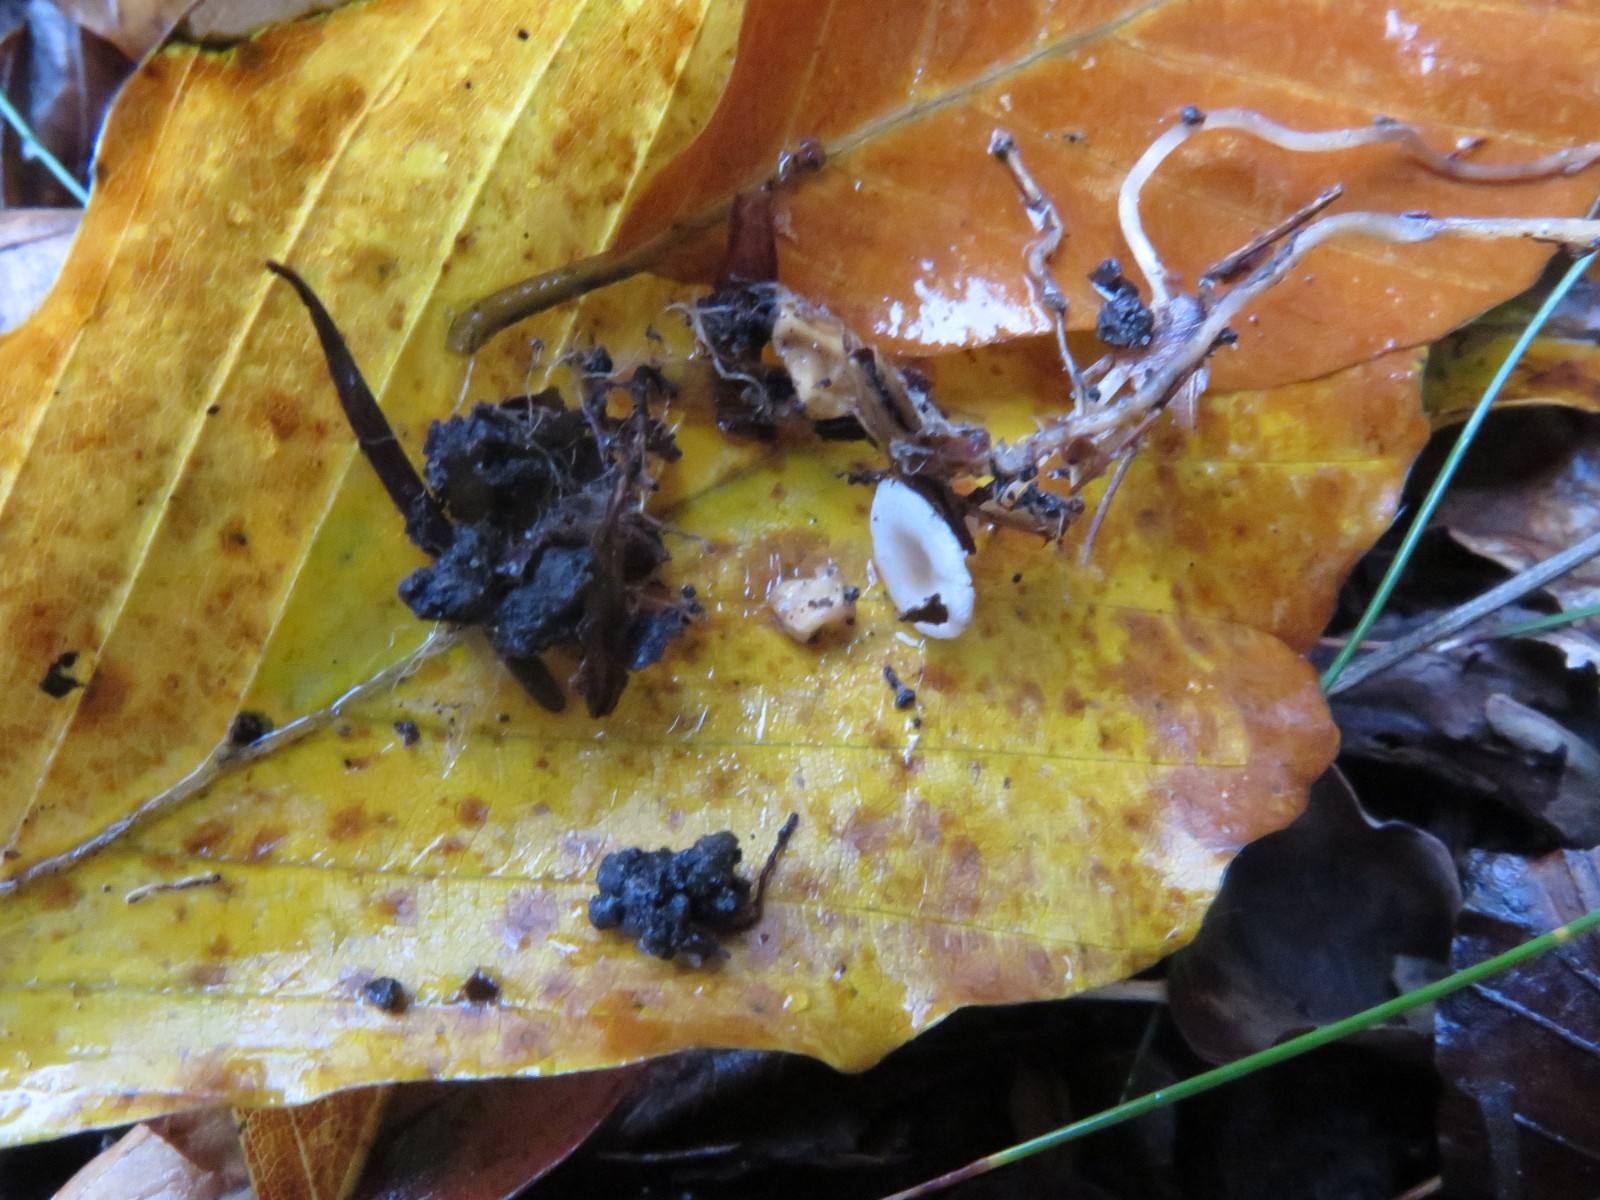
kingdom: Fungi
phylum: Basidiomycota
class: Agaricomycetes
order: Agaricales
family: Tricholomataceae
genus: Collybia
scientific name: Collybia cookei
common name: gulknoldet lighat
